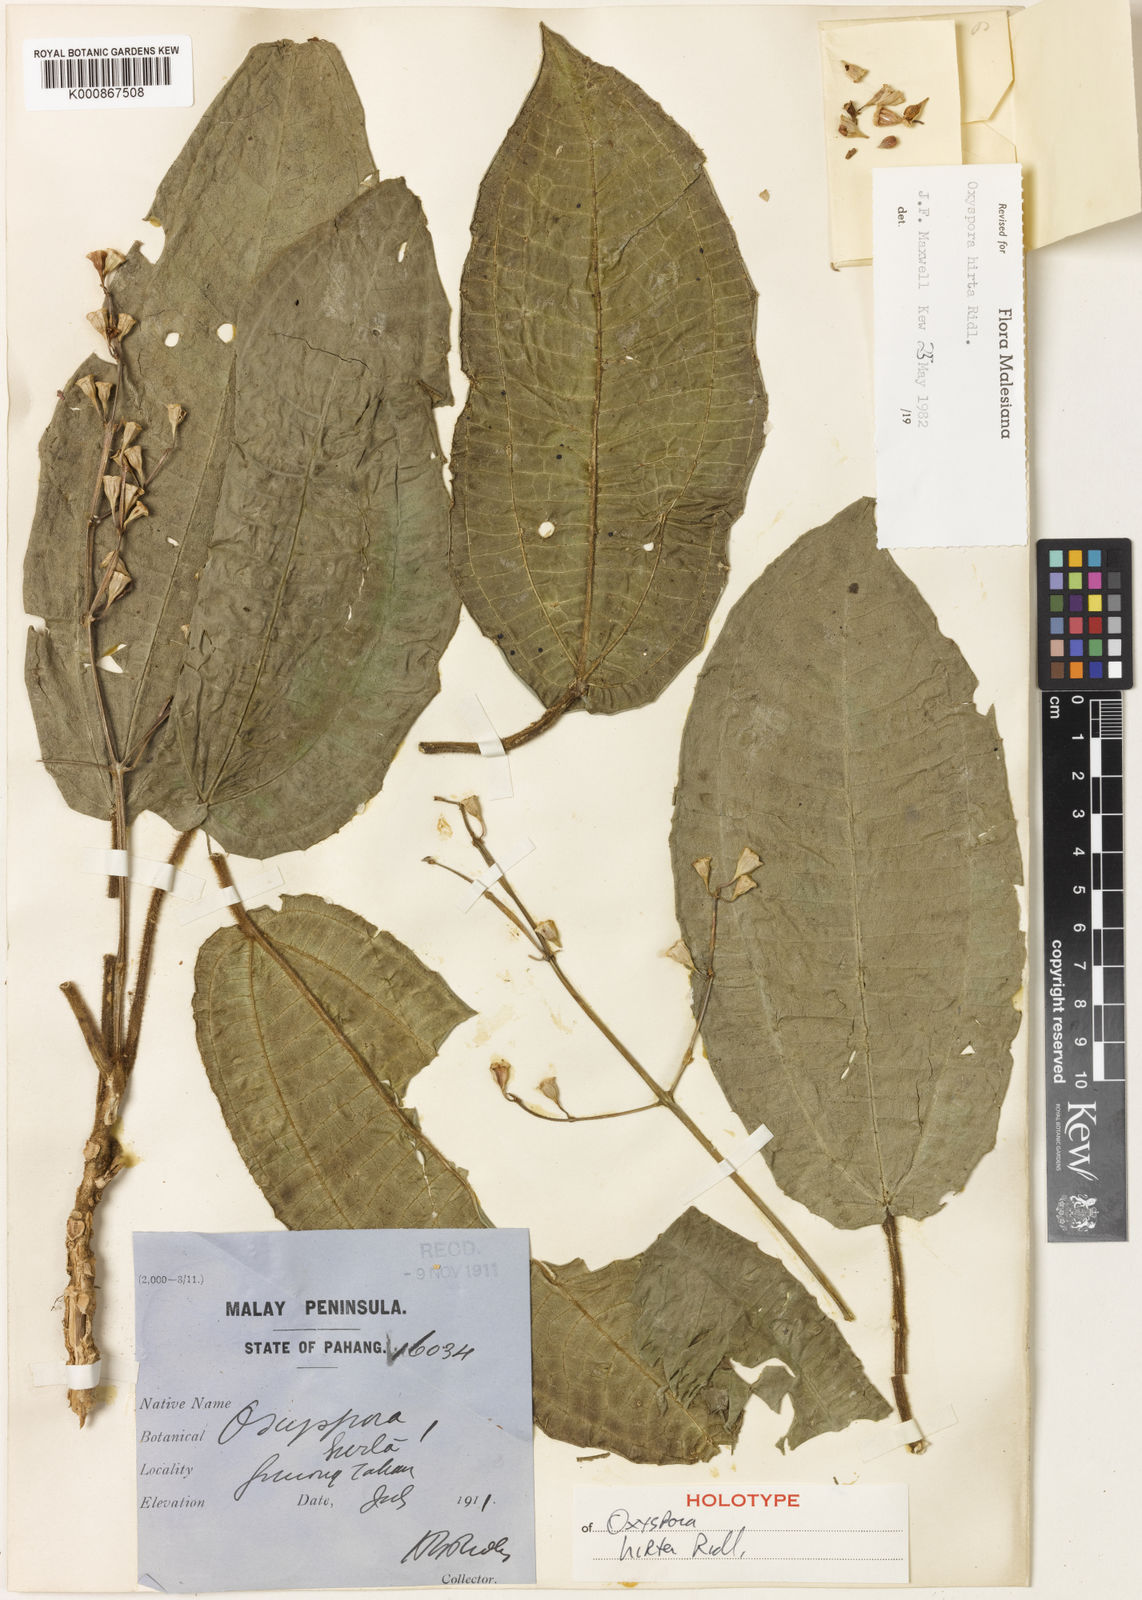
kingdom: Plantae
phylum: Tracheophyta
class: Magnoliopsida
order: Myrtales
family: Melastomataceae
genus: Oxyspora
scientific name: Oxyspora hirta
